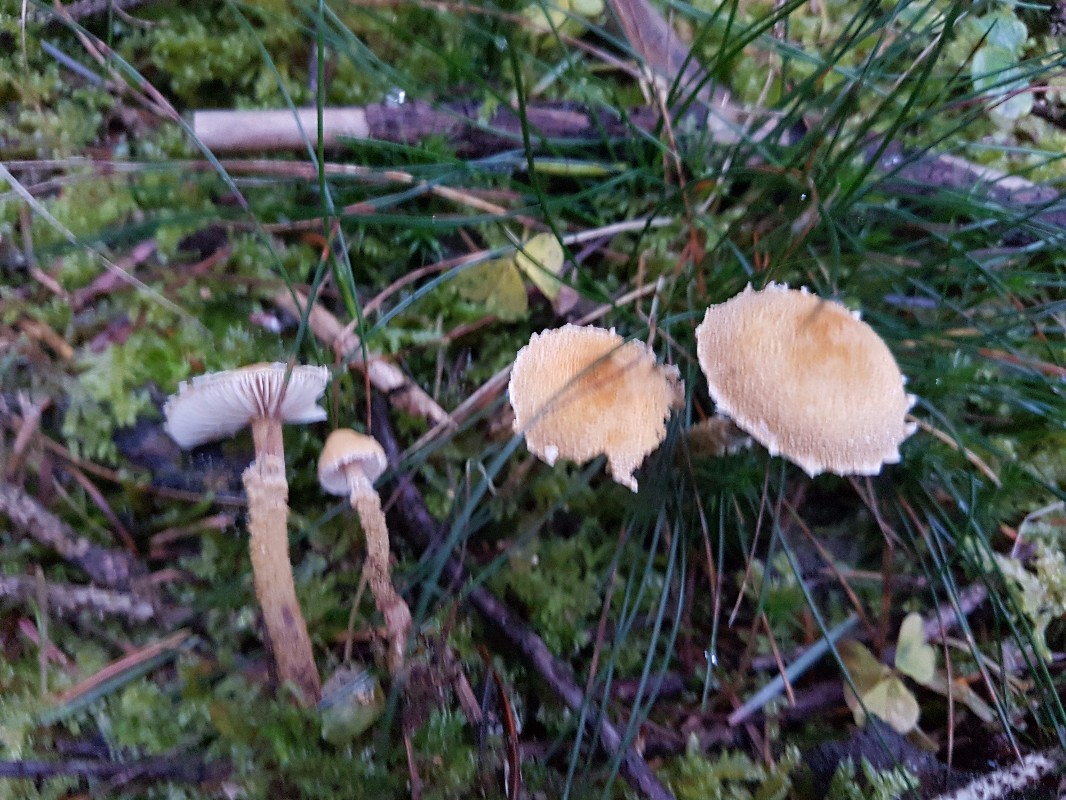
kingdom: Fungi
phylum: Basidiomycota
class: Agaricomycetes
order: Agaricales
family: Tricholomataceae
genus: Cystoderma
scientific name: Cystoderma amianthinum
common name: okkergul grynhat
